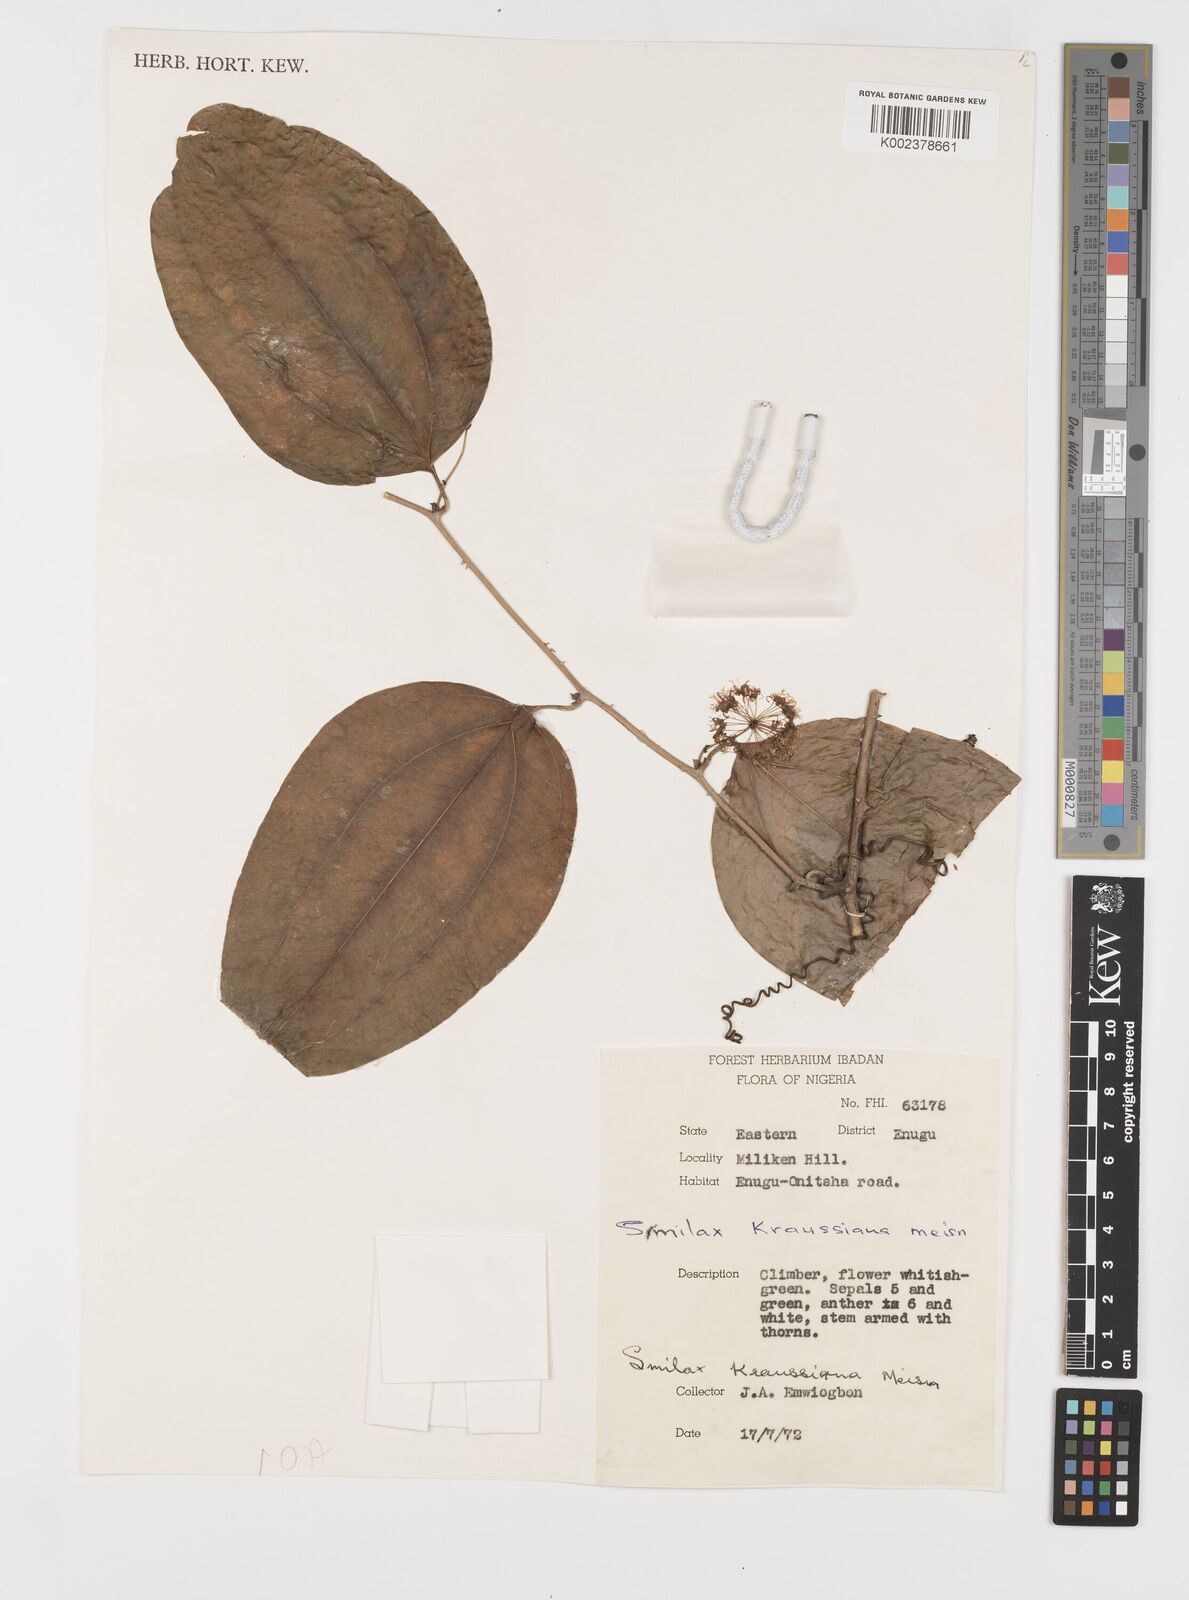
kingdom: Plantae
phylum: Tracheophyta
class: Liliopsida
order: Liliales
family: Smilacaceae
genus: Smilax
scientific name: Smilax anceps
